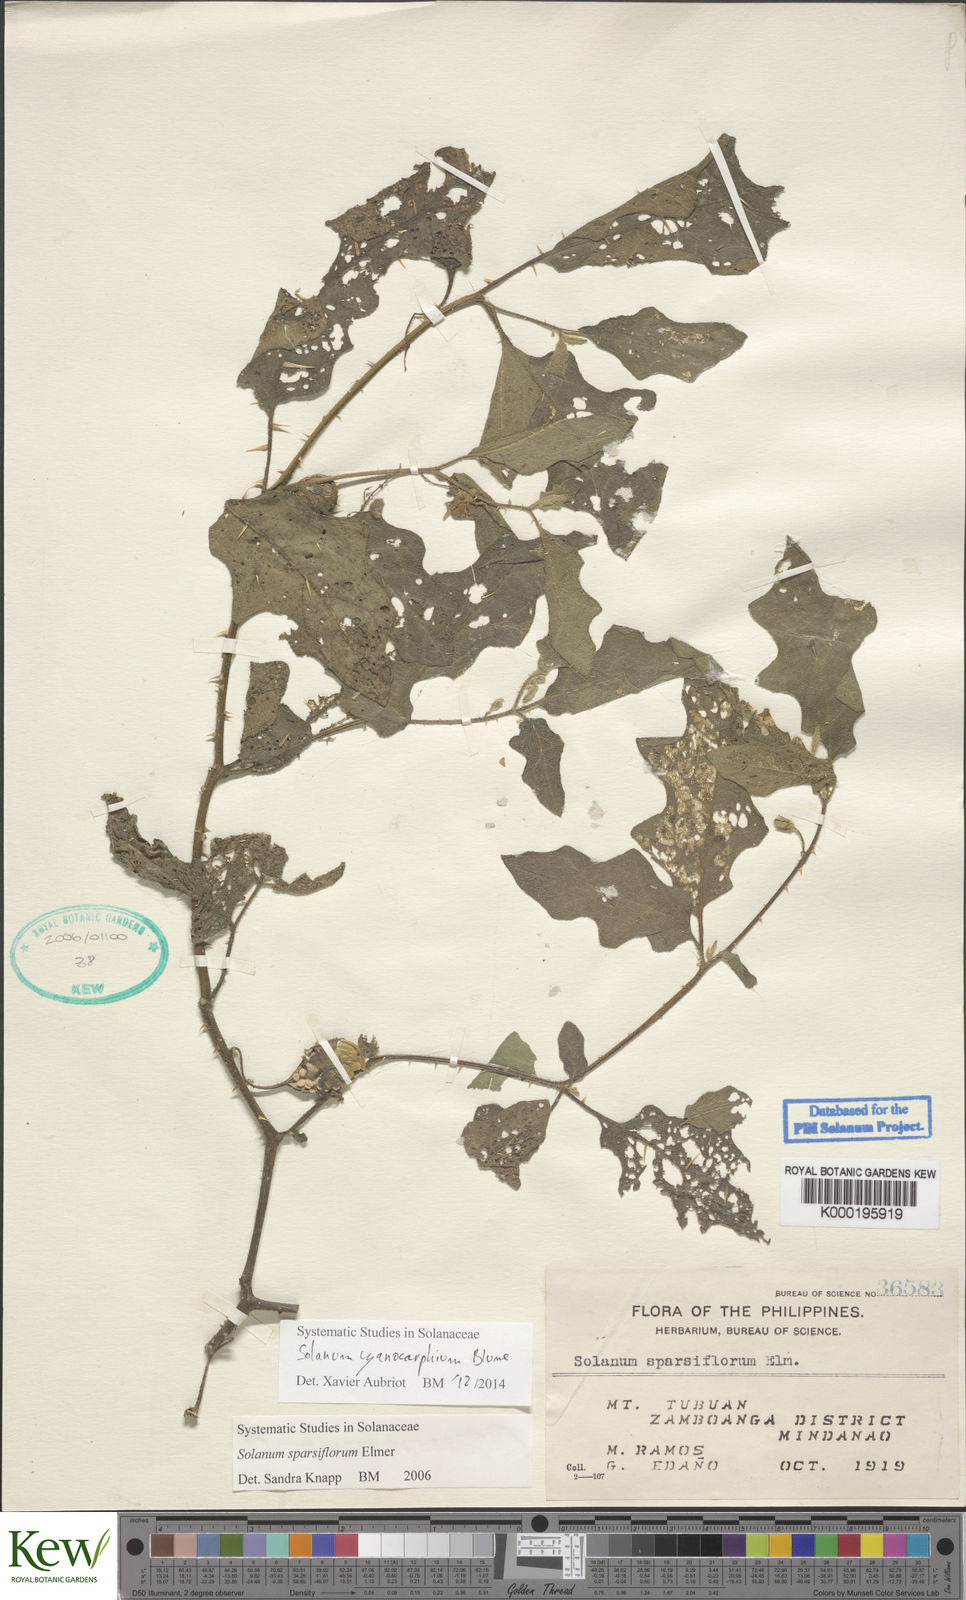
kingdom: Plantae
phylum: Tracheophyta
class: Magnoliopsida
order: Solanales
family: Solanaceae
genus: Solanum
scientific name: Solanum cyanocarphium
